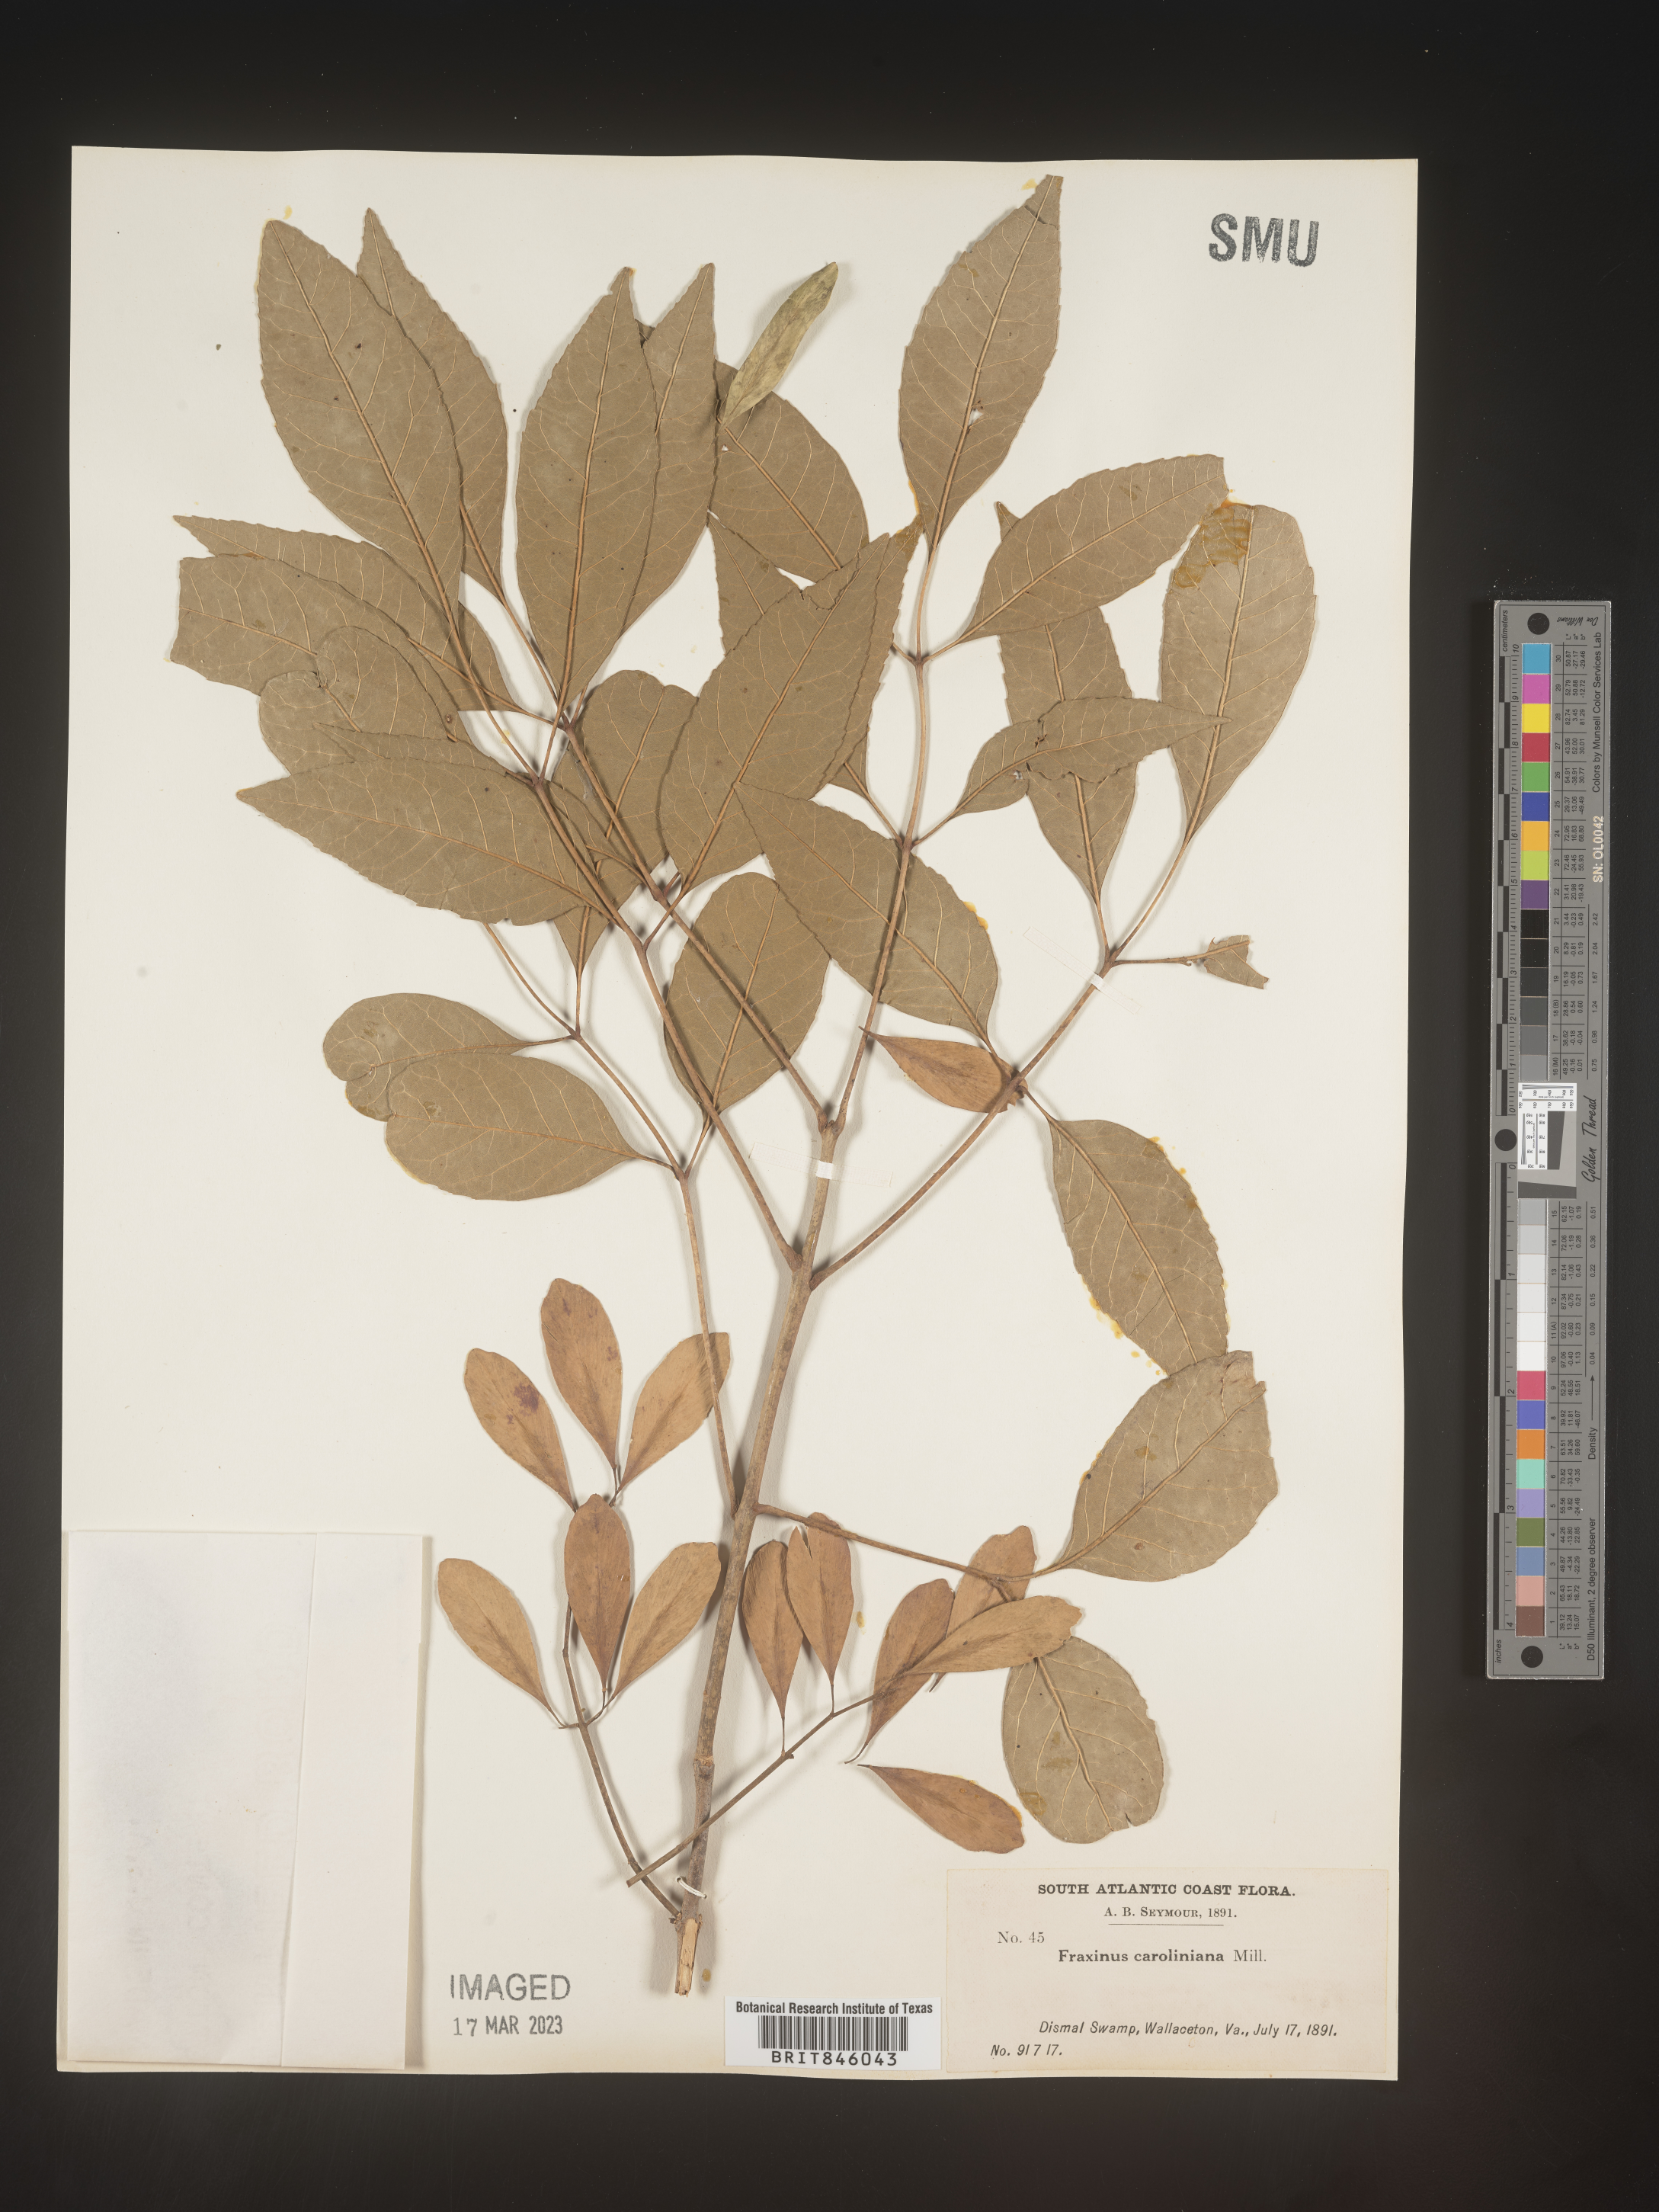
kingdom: Plantae
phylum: Tracheophyta
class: Magnoliopsida
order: Lamiales
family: Oleaceae
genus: Fraxinus
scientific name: Fraxinus caroliniana
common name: Carolina ash
